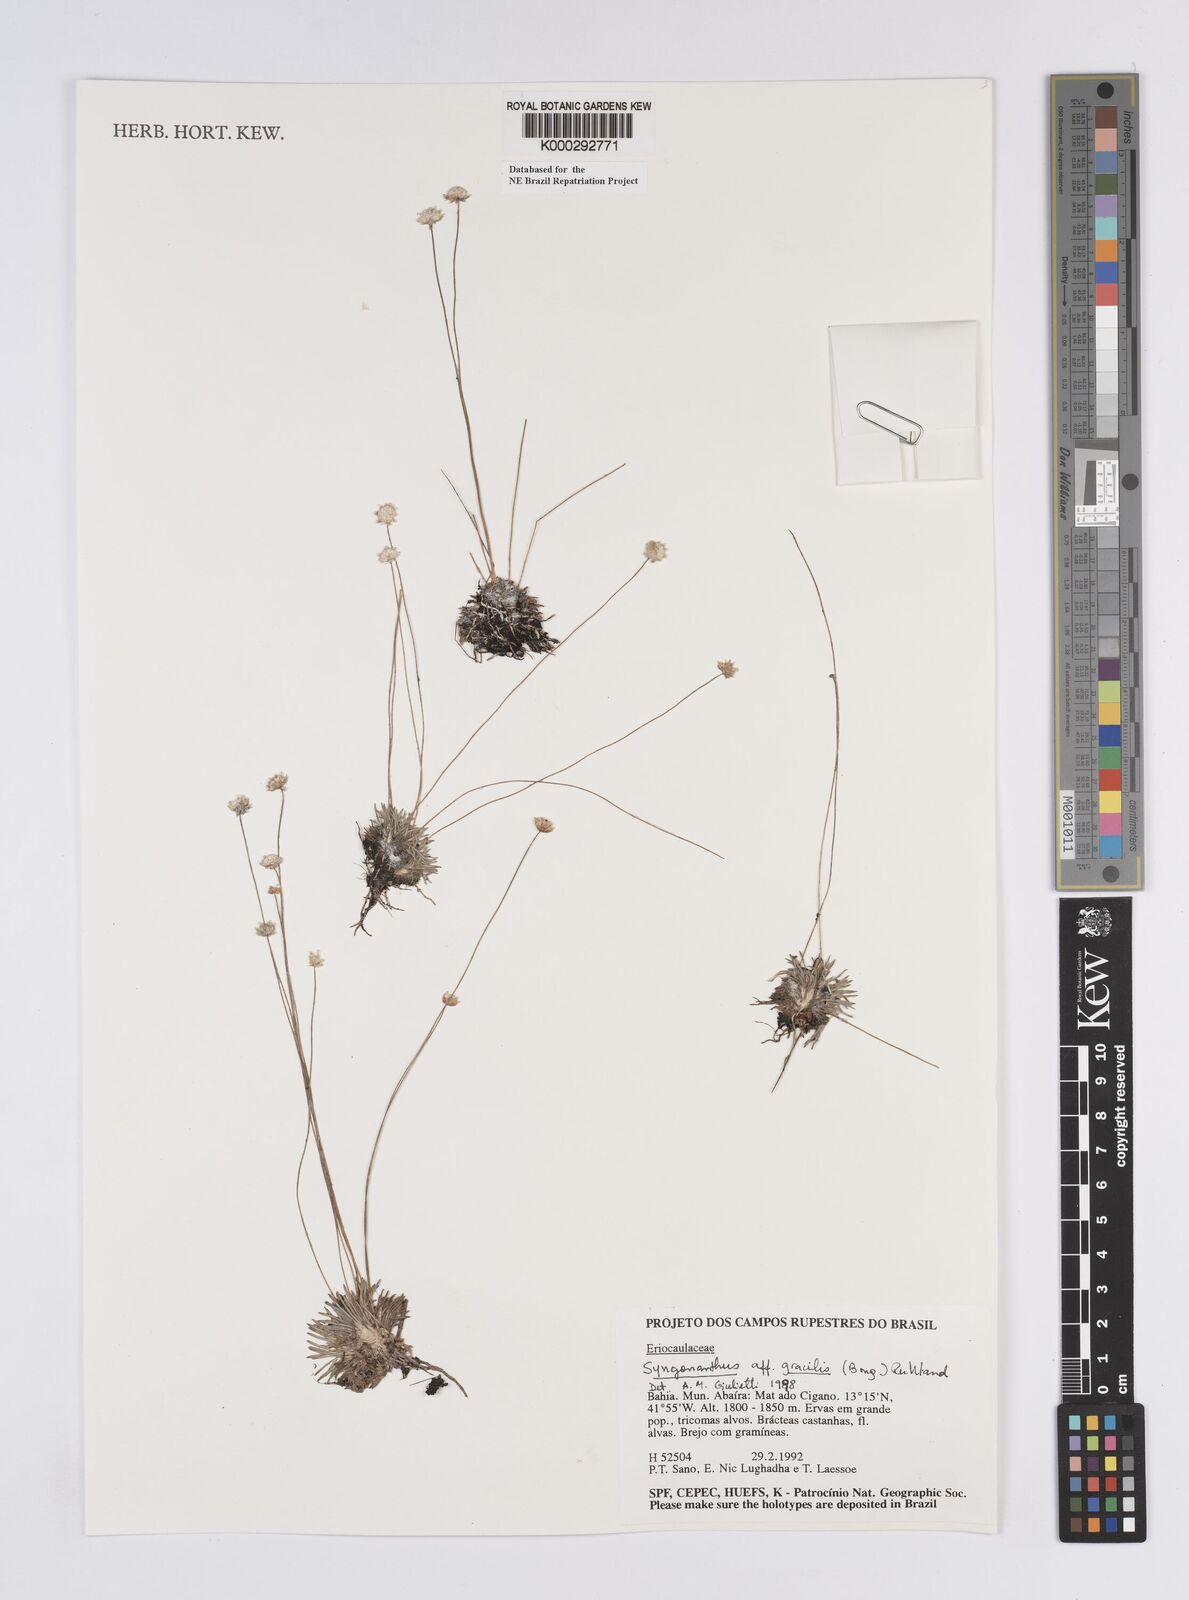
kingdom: Plantae
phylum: Tracheophyta
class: Liliopsida
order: Poales
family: Eriocaulaceae
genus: Syngonanthus
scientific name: Syngonanthus gracilis
